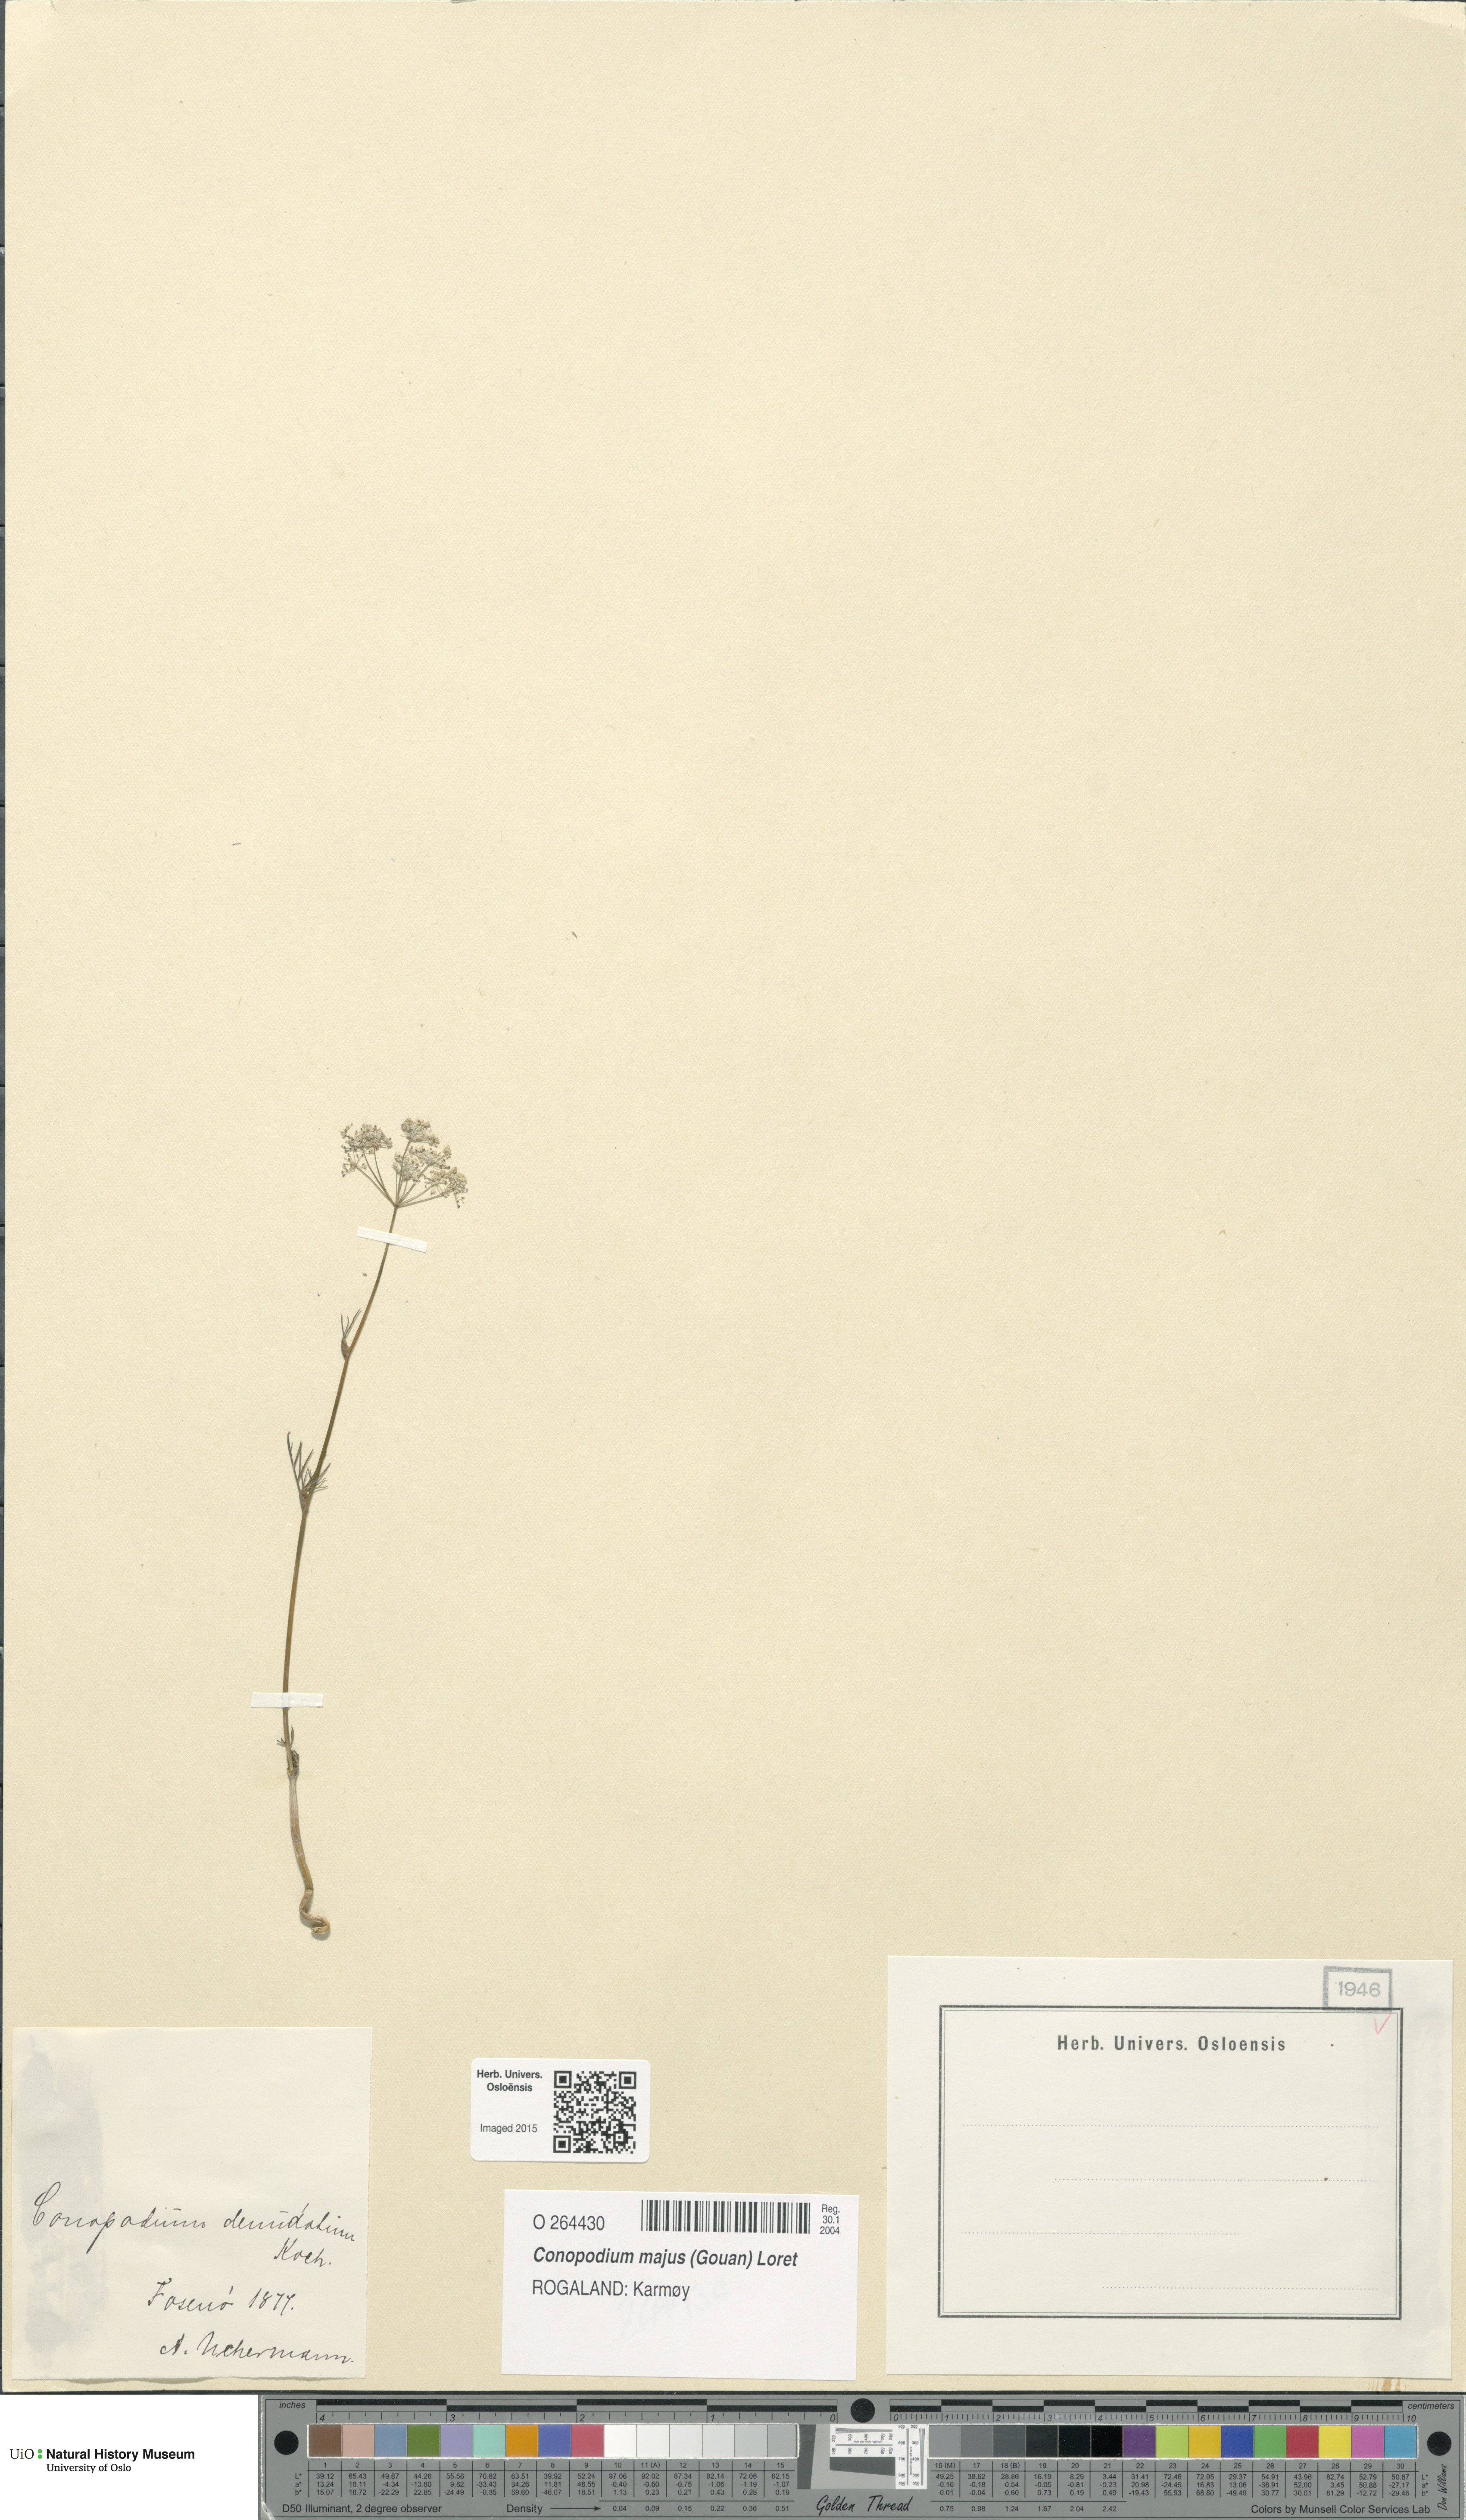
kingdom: Plantae
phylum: Tracheophyta
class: Magnoliopsida
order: Apiales
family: Apiaceae
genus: Conopodium
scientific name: Conopodium majus
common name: Pignut
